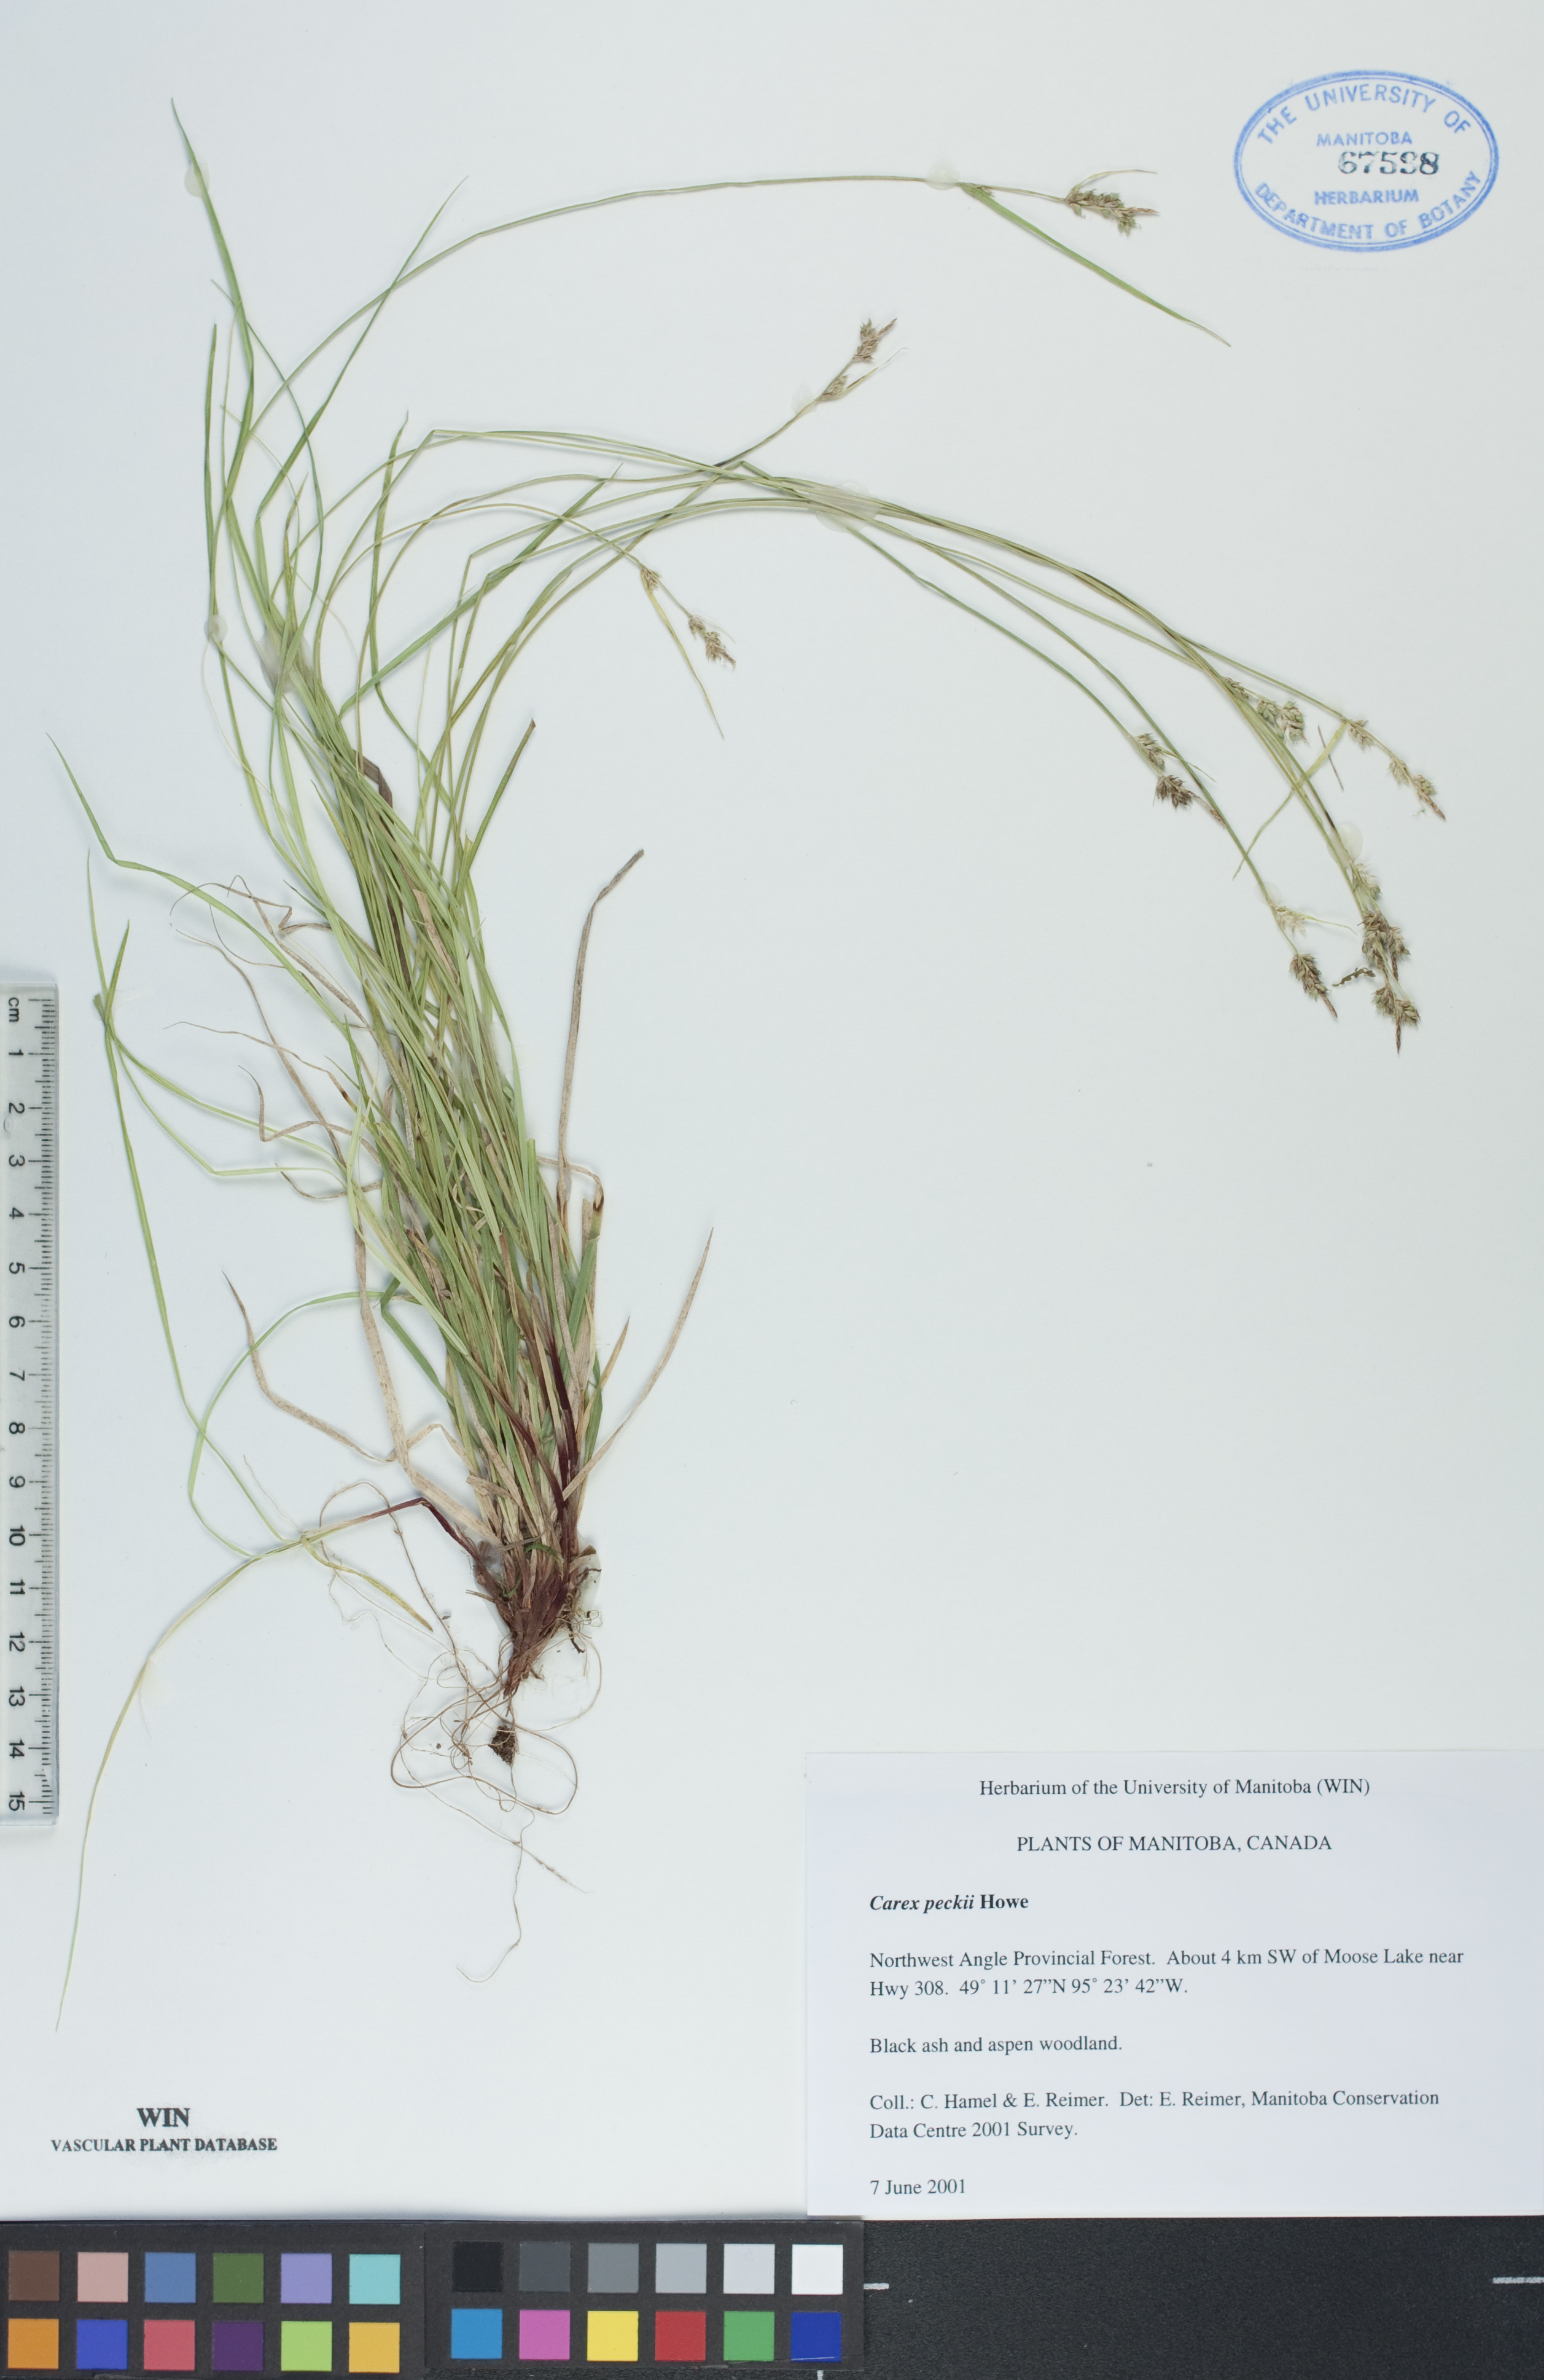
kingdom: Plantae
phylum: Tracheophyta
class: Liliopsida
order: Poales
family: Cyperaceae
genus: Carex
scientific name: Carex peckii
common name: Peck's oak sedge
